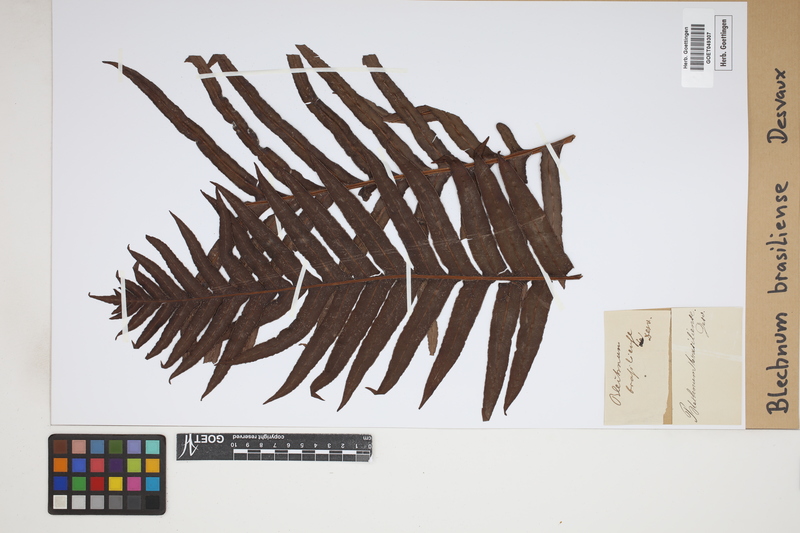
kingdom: Plantae
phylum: Tracheophyta
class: Polypodiopsida
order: Polypodiales
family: Blechnaceae
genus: Neoblechnum
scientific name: Neoblechnum brasiliense
